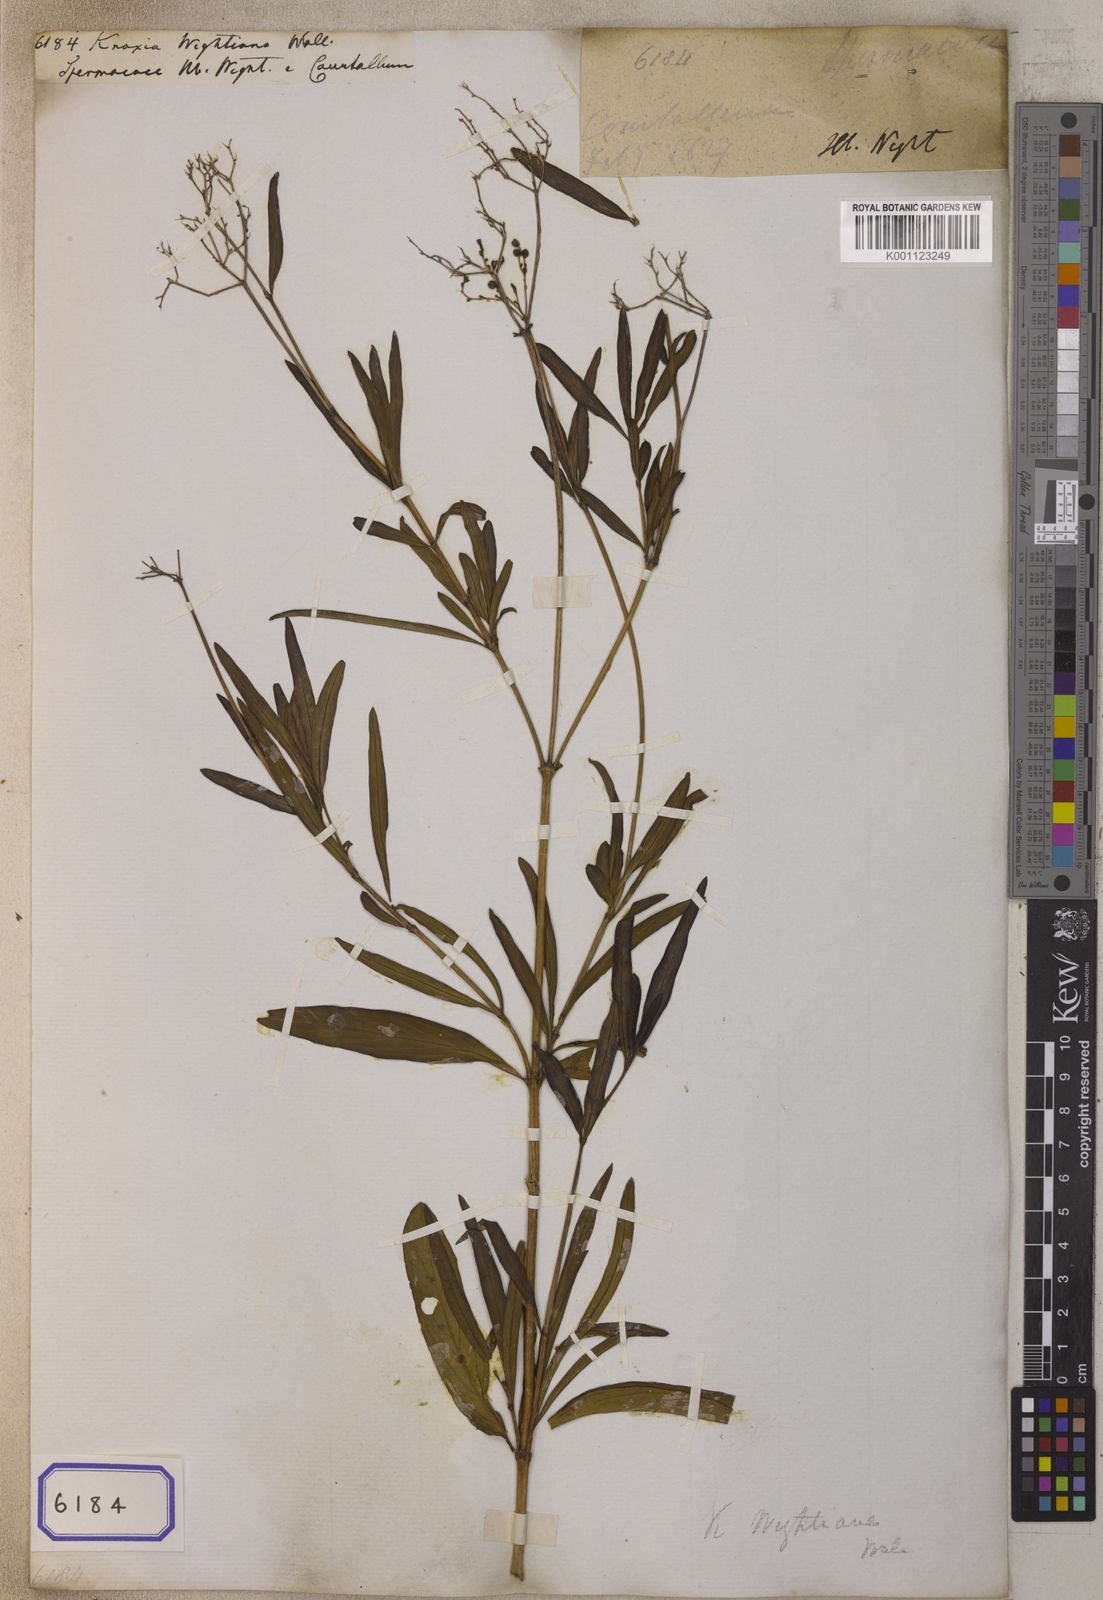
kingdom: Plantae
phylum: Tracheophyta
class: Magnoliopsida
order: Gentianales
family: Rubiaceae
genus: Knoxia
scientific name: Knoxia
